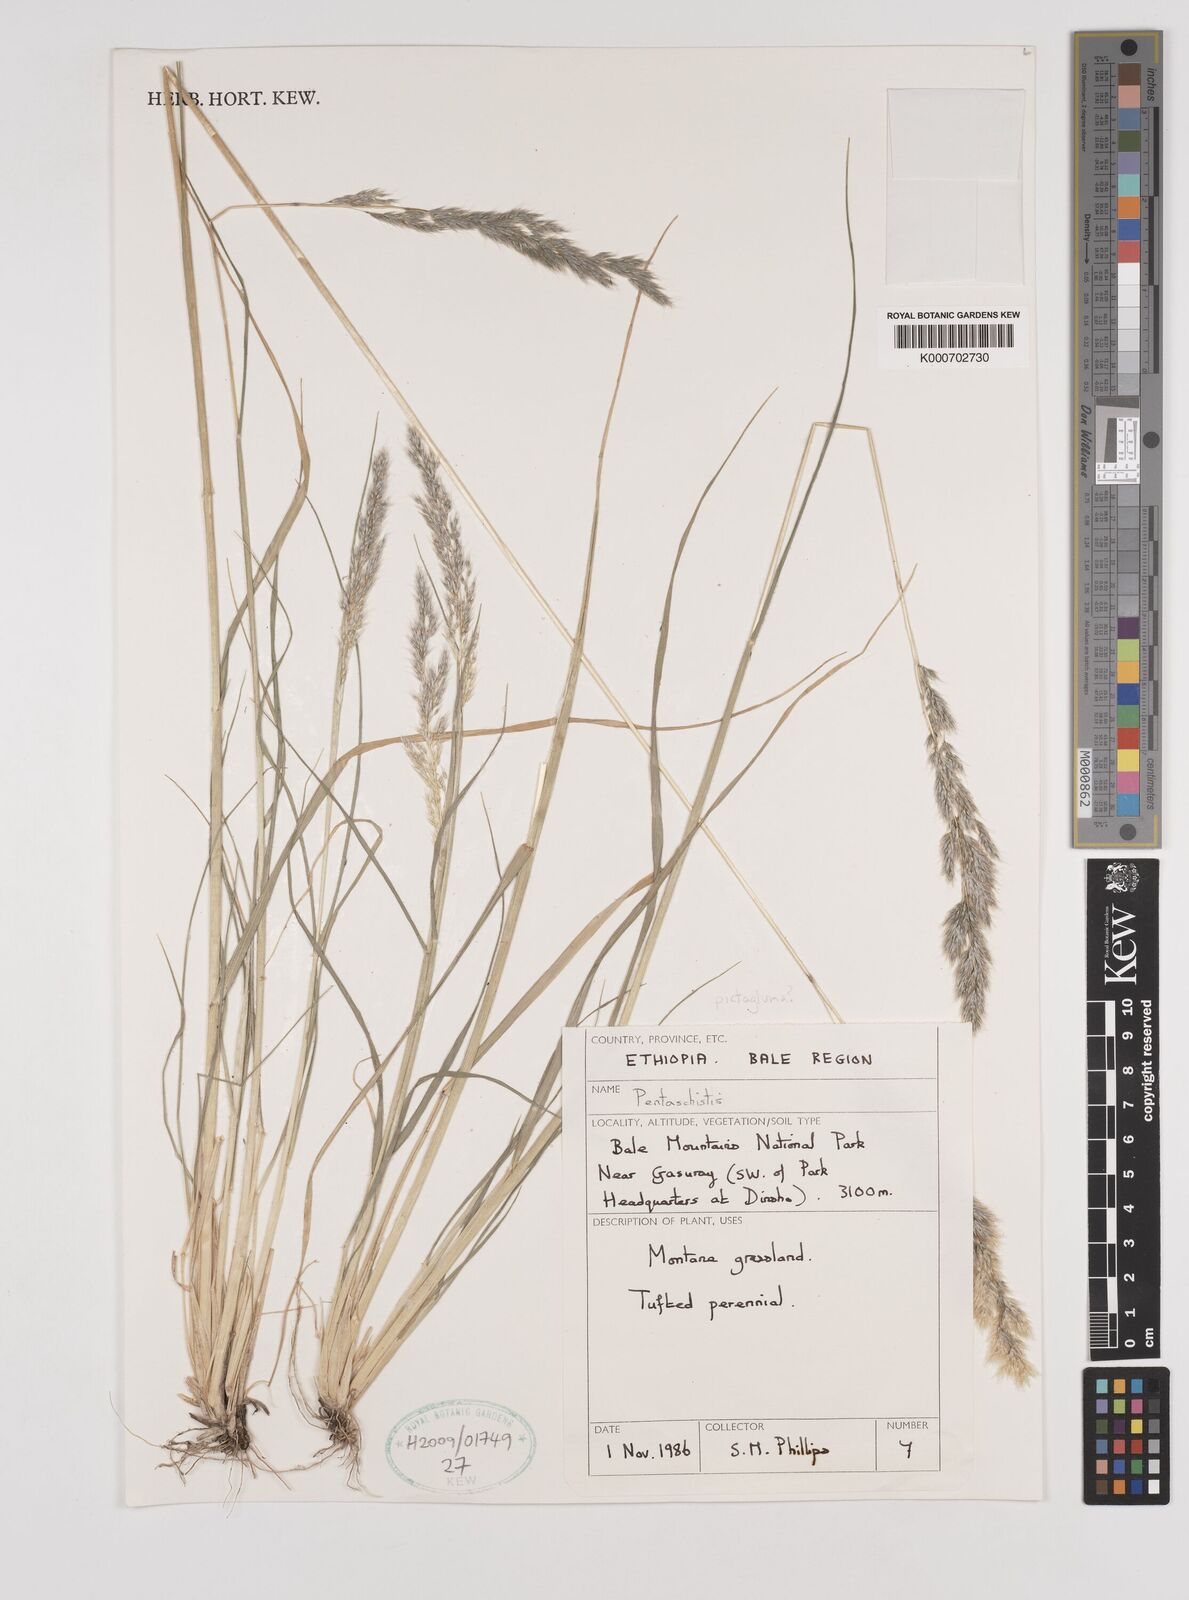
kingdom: Plantae
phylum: Tracheophyta
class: Liliopsida
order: Poales
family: Poaceae
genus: Pentameris
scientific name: Pentameris pictigluma
